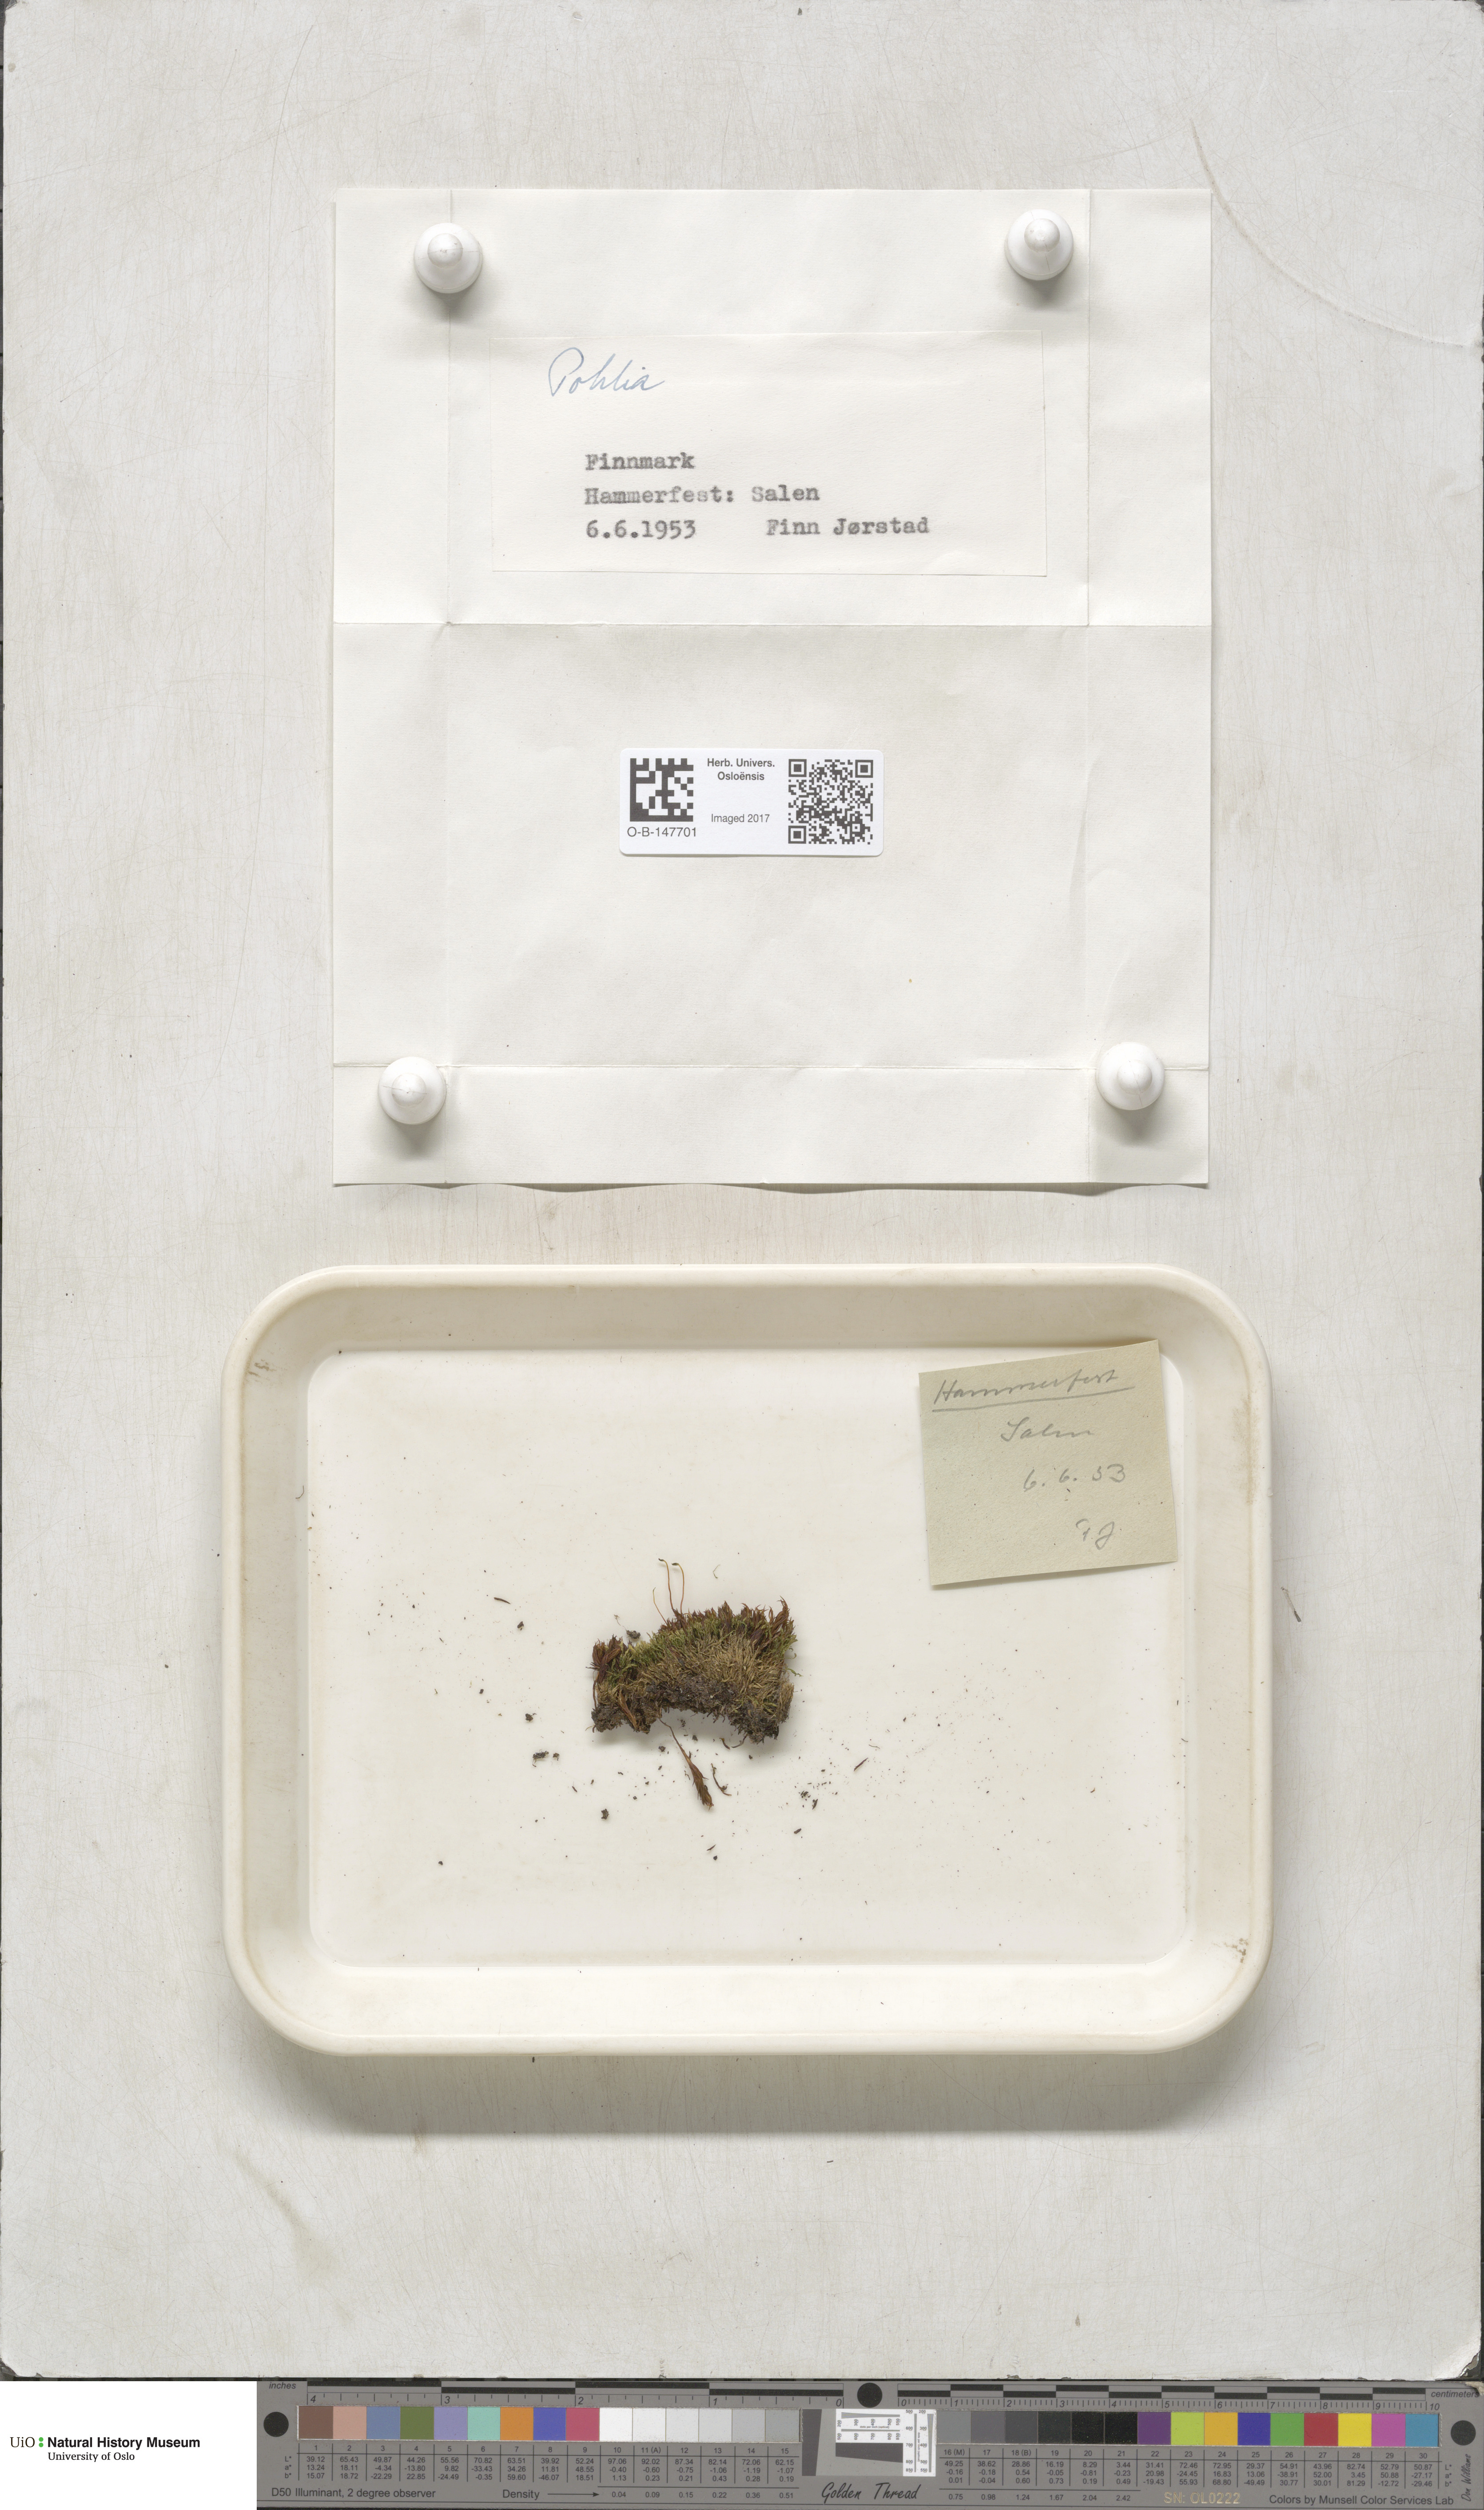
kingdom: Plantae
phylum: Bryophyta
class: Bryopsida
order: Bryales
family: Mniaceae
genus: Pohlia
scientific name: Pohlia
